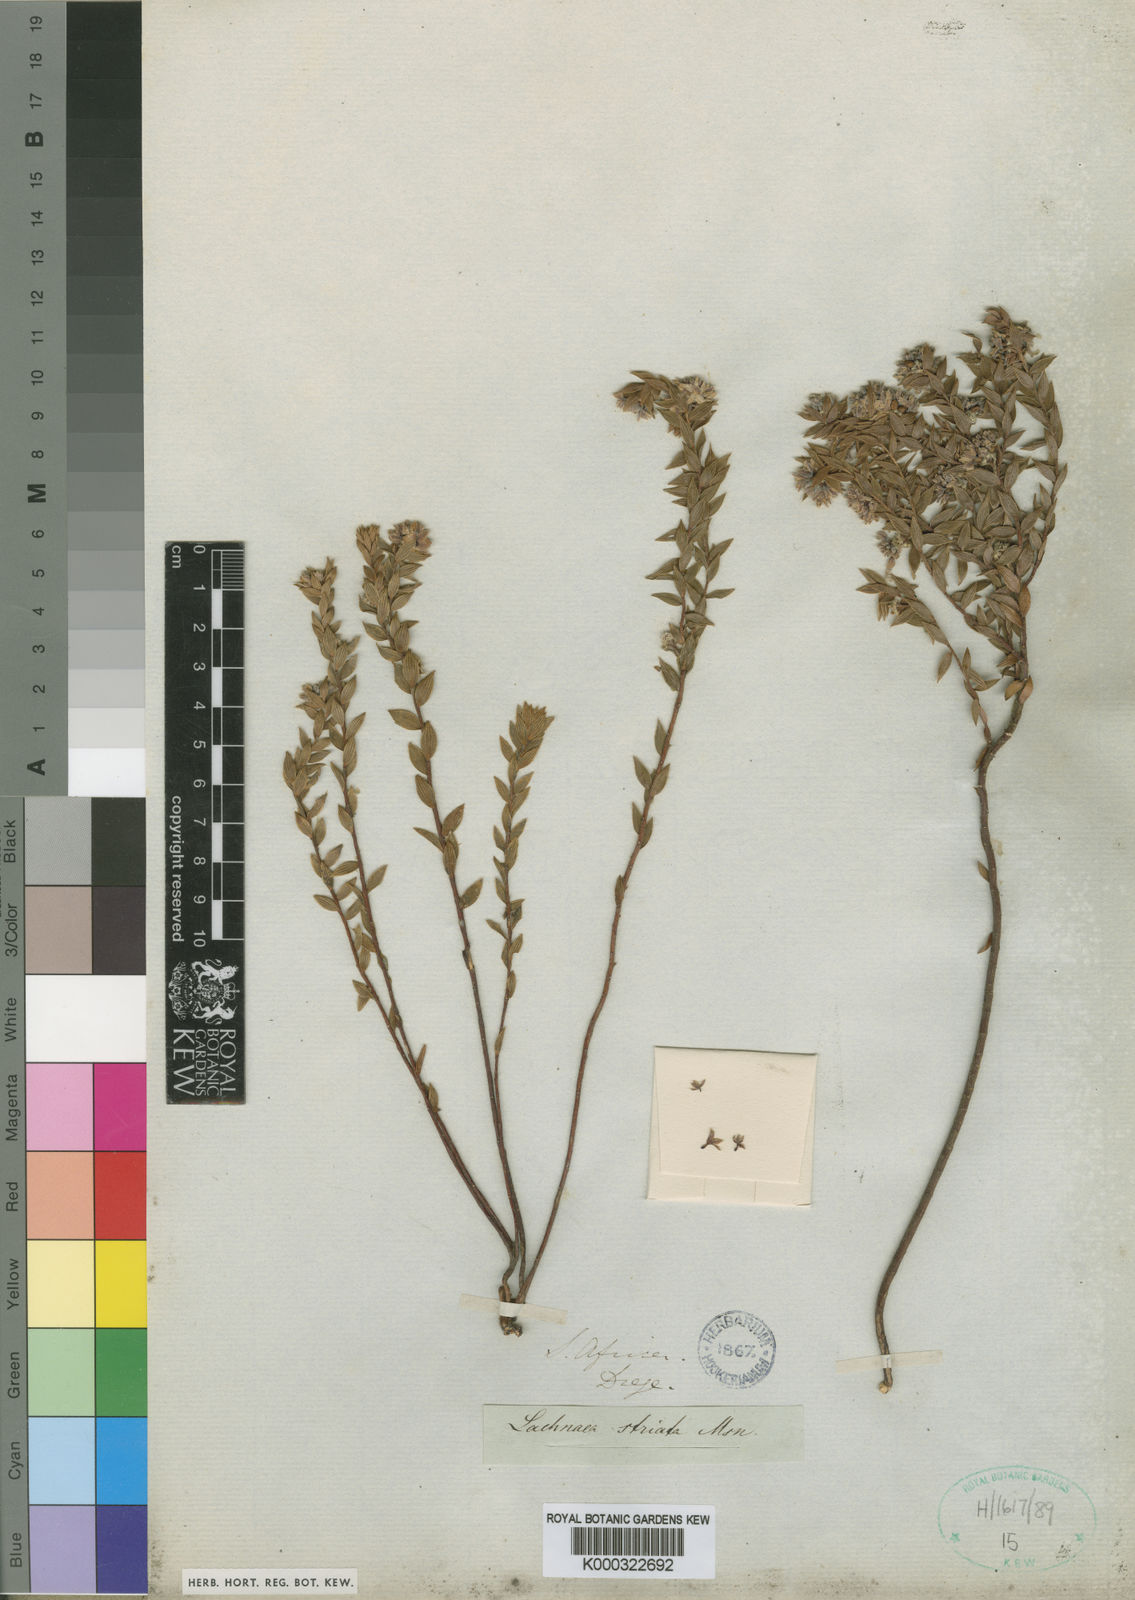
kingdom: Plantae
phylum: Tracheophyta
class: Magnoliopsida
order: Malvales
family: Thymelaeaceae
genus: Lachnaea
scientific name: Lachnaea striata
